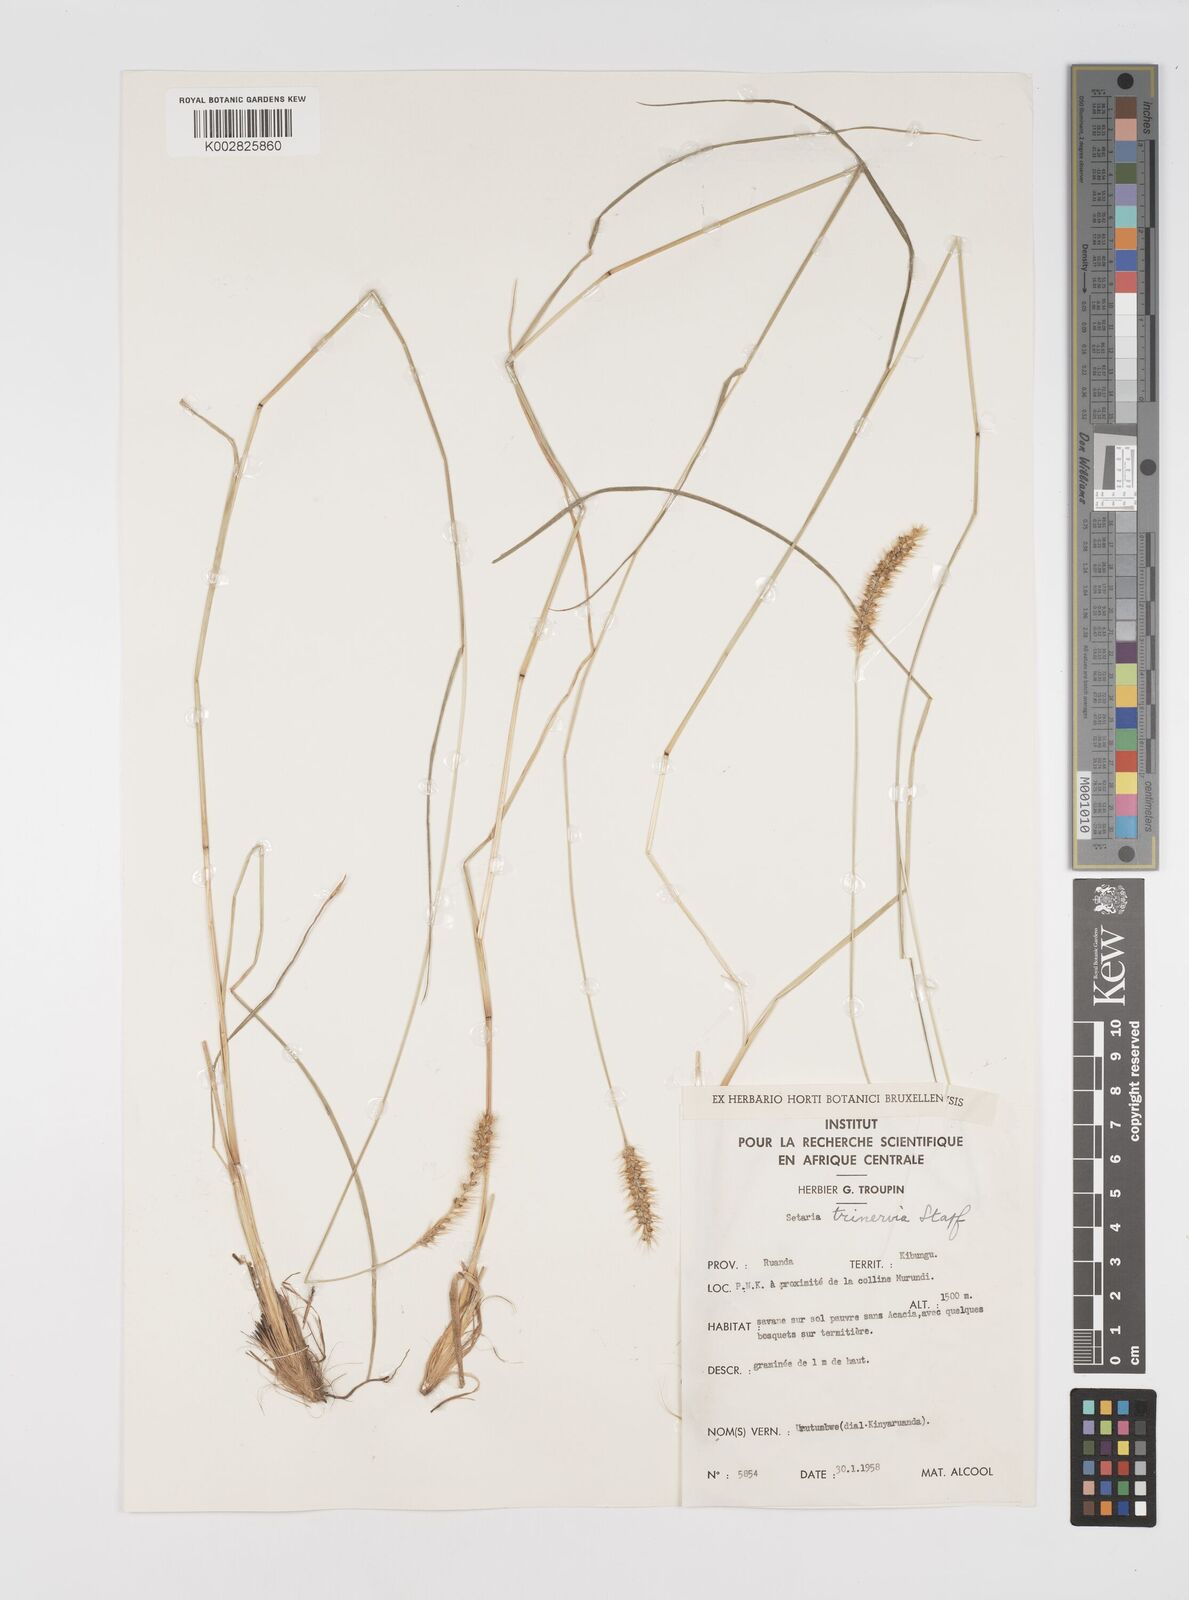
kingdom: Plantae
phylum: Tracheophyta
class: Liliopsida
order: Poales
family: Poaceae
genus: Setaria
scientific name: Setaria sphacelata
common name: African bristlegrass
